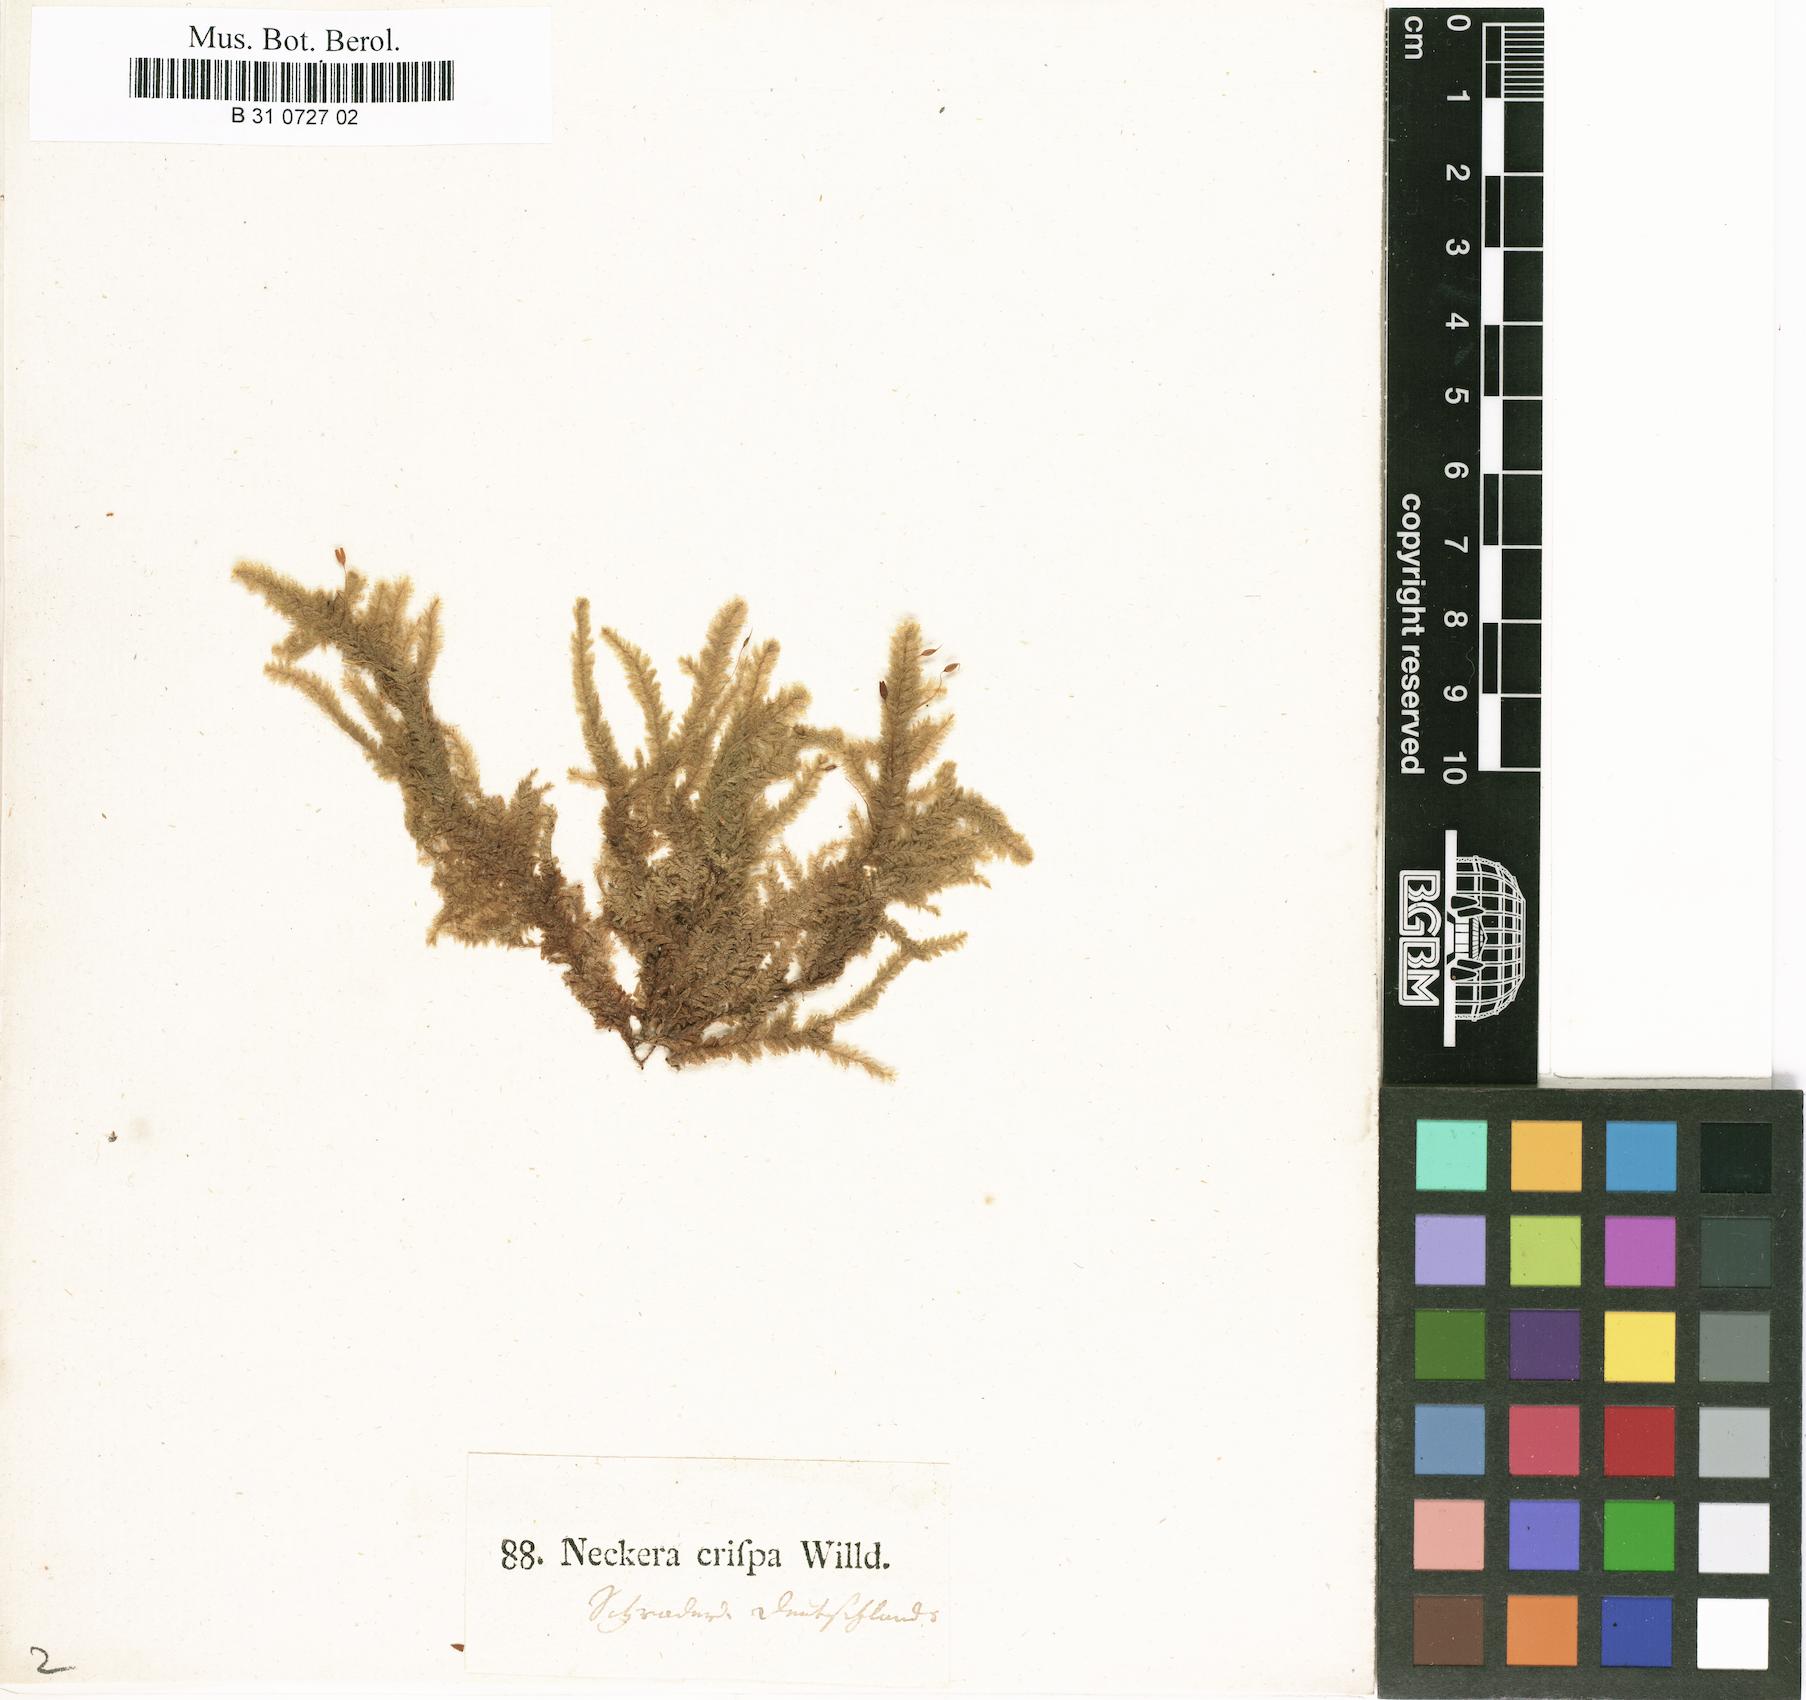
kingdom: Plantae
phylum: Bryophyta
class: Bryopsida
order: Hypnales
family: Neckeraceae
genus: Exsertotheca
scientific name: Exsertotheca crispa
